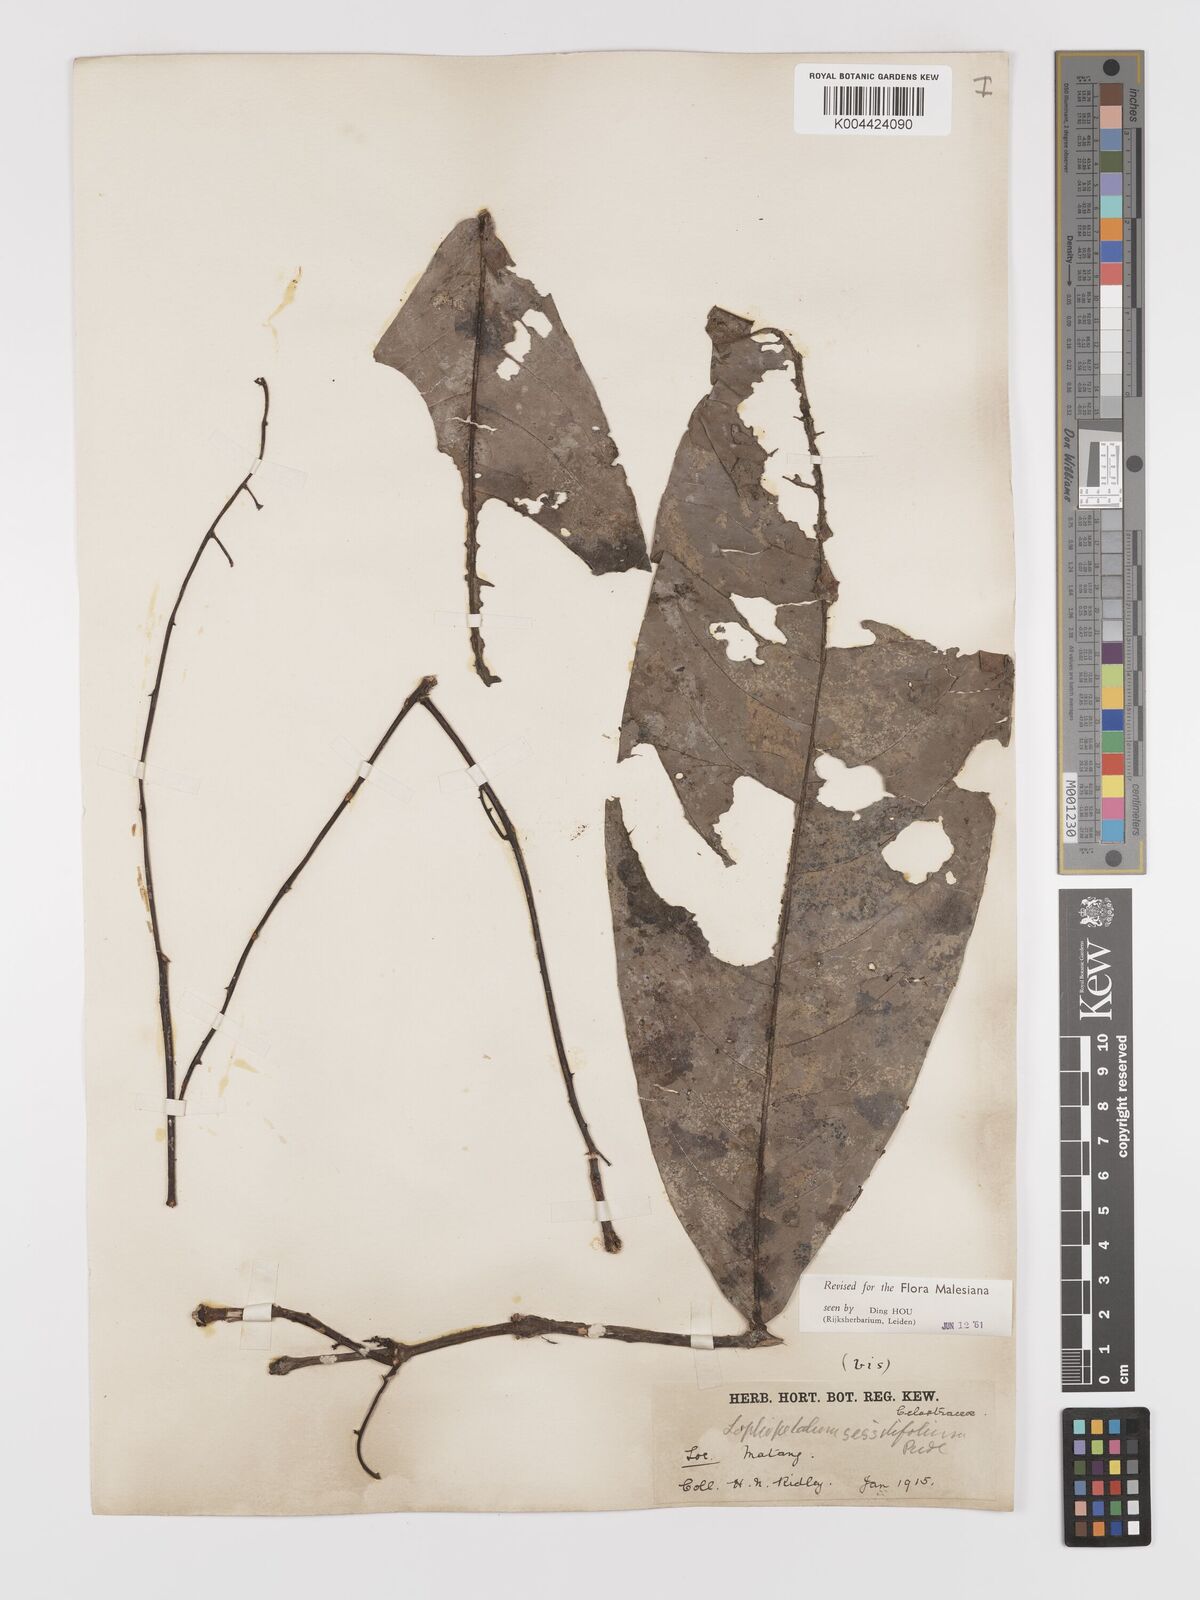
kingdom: Plantae
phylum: Tracheophyta
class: Magnoliopsida
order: Celastrales
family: Celastraceae
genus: Lophopetalum
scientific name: Lophopetalum sessilifolium
